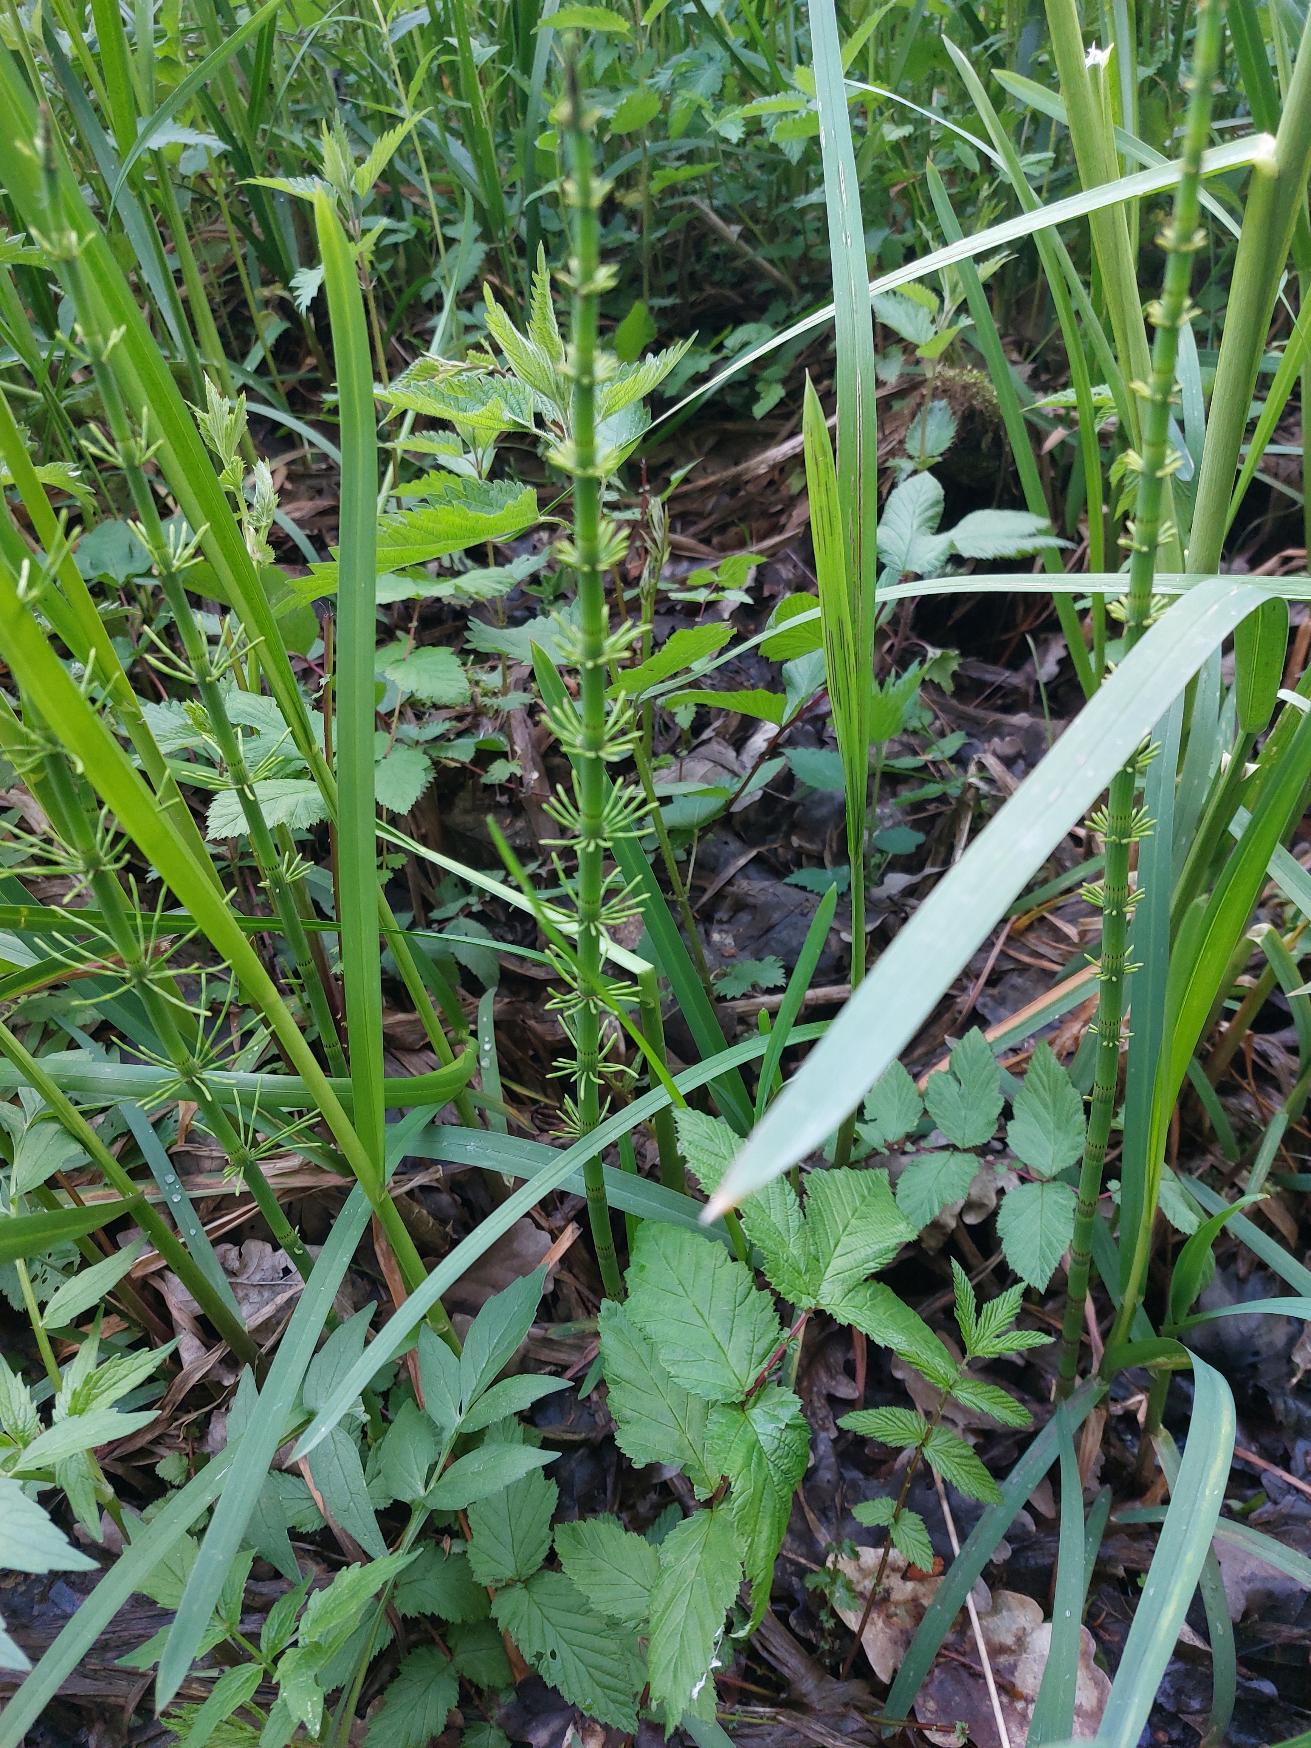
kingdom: Plantae
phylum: Tracheophyta
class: Polypodiopsida
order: Equisetales
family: Equisetaceae
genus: Equisetum
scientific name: Equisetum fluviatile
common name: Dynd-padderok
